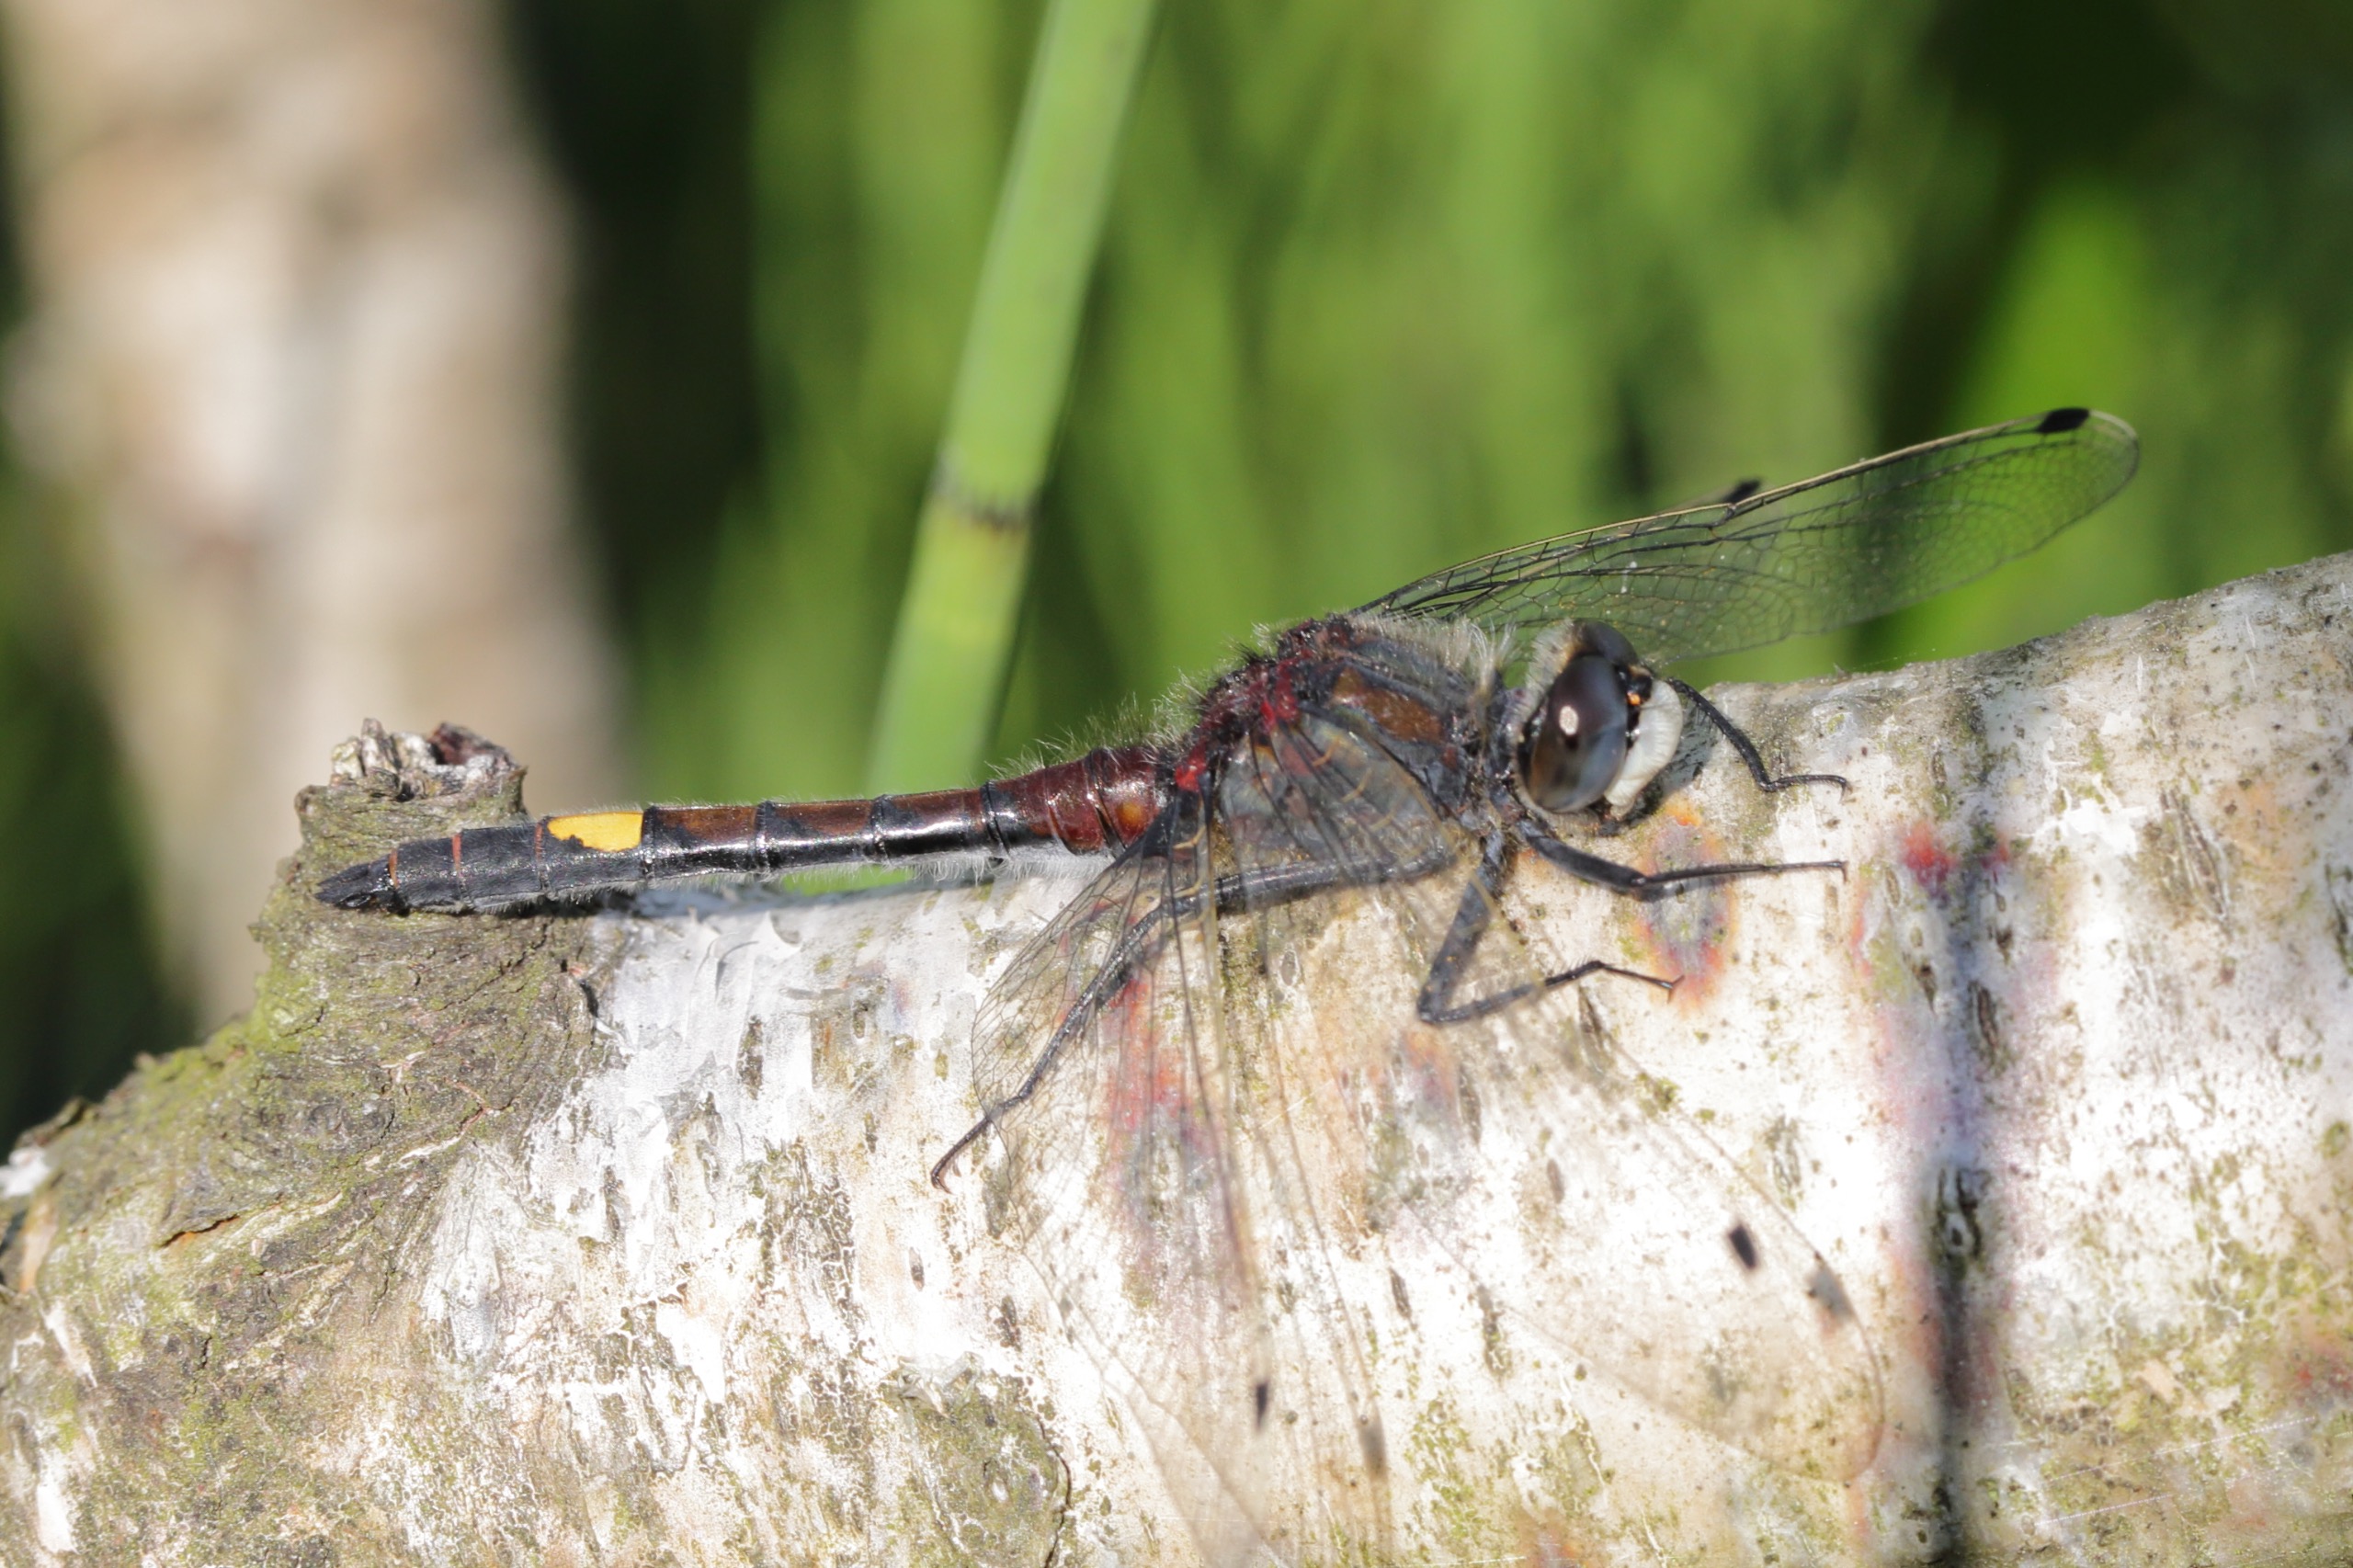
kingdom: Animalia
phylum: Arthropoda
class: Insecta
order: Odonata
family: Libellulidae
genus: Leucorrhinia
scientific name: Leucorrhinia pectoralis
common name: Stor kærguldsmed
